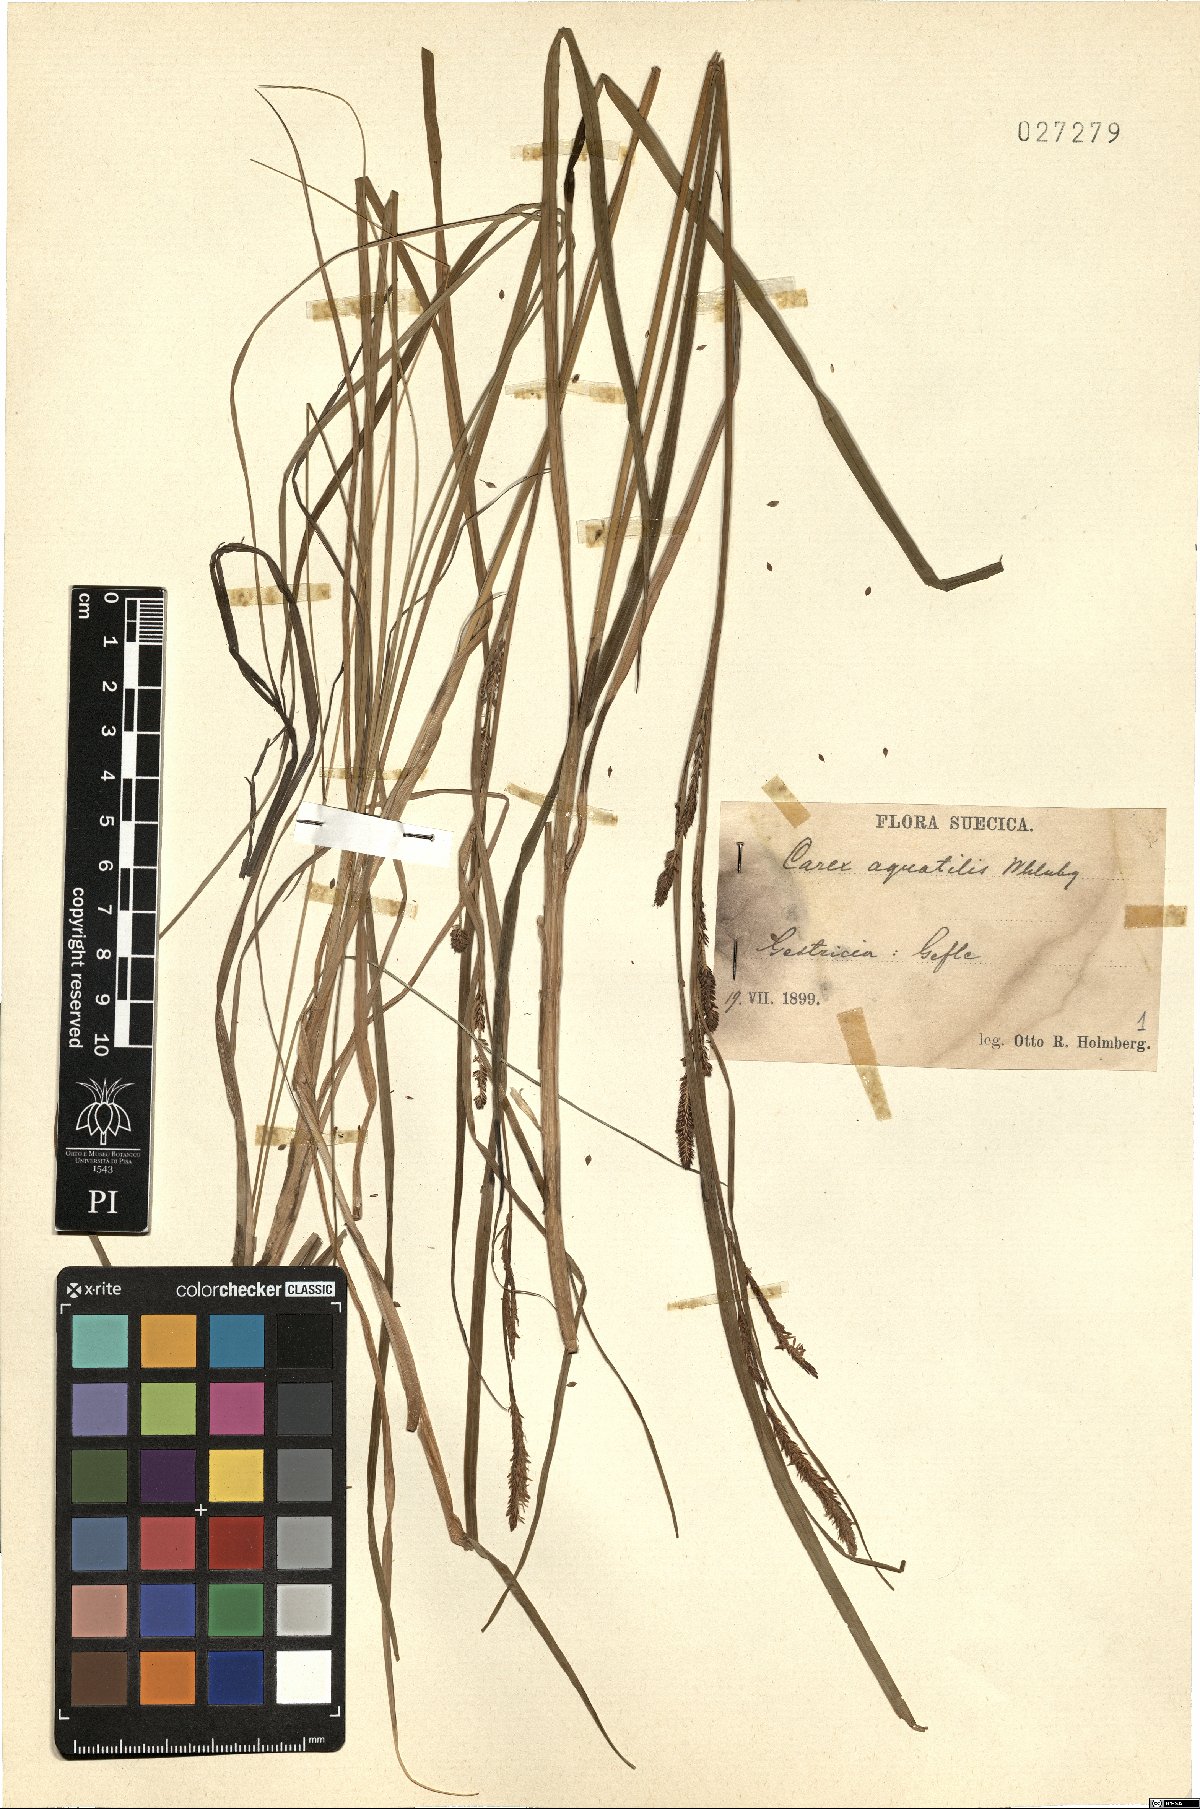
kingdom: Plantae
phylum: Tracheophyta
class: Liliopsida
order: Poales
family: Cyperaceae
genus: Carex
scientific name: Carex aquatilis
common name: Water sedge
